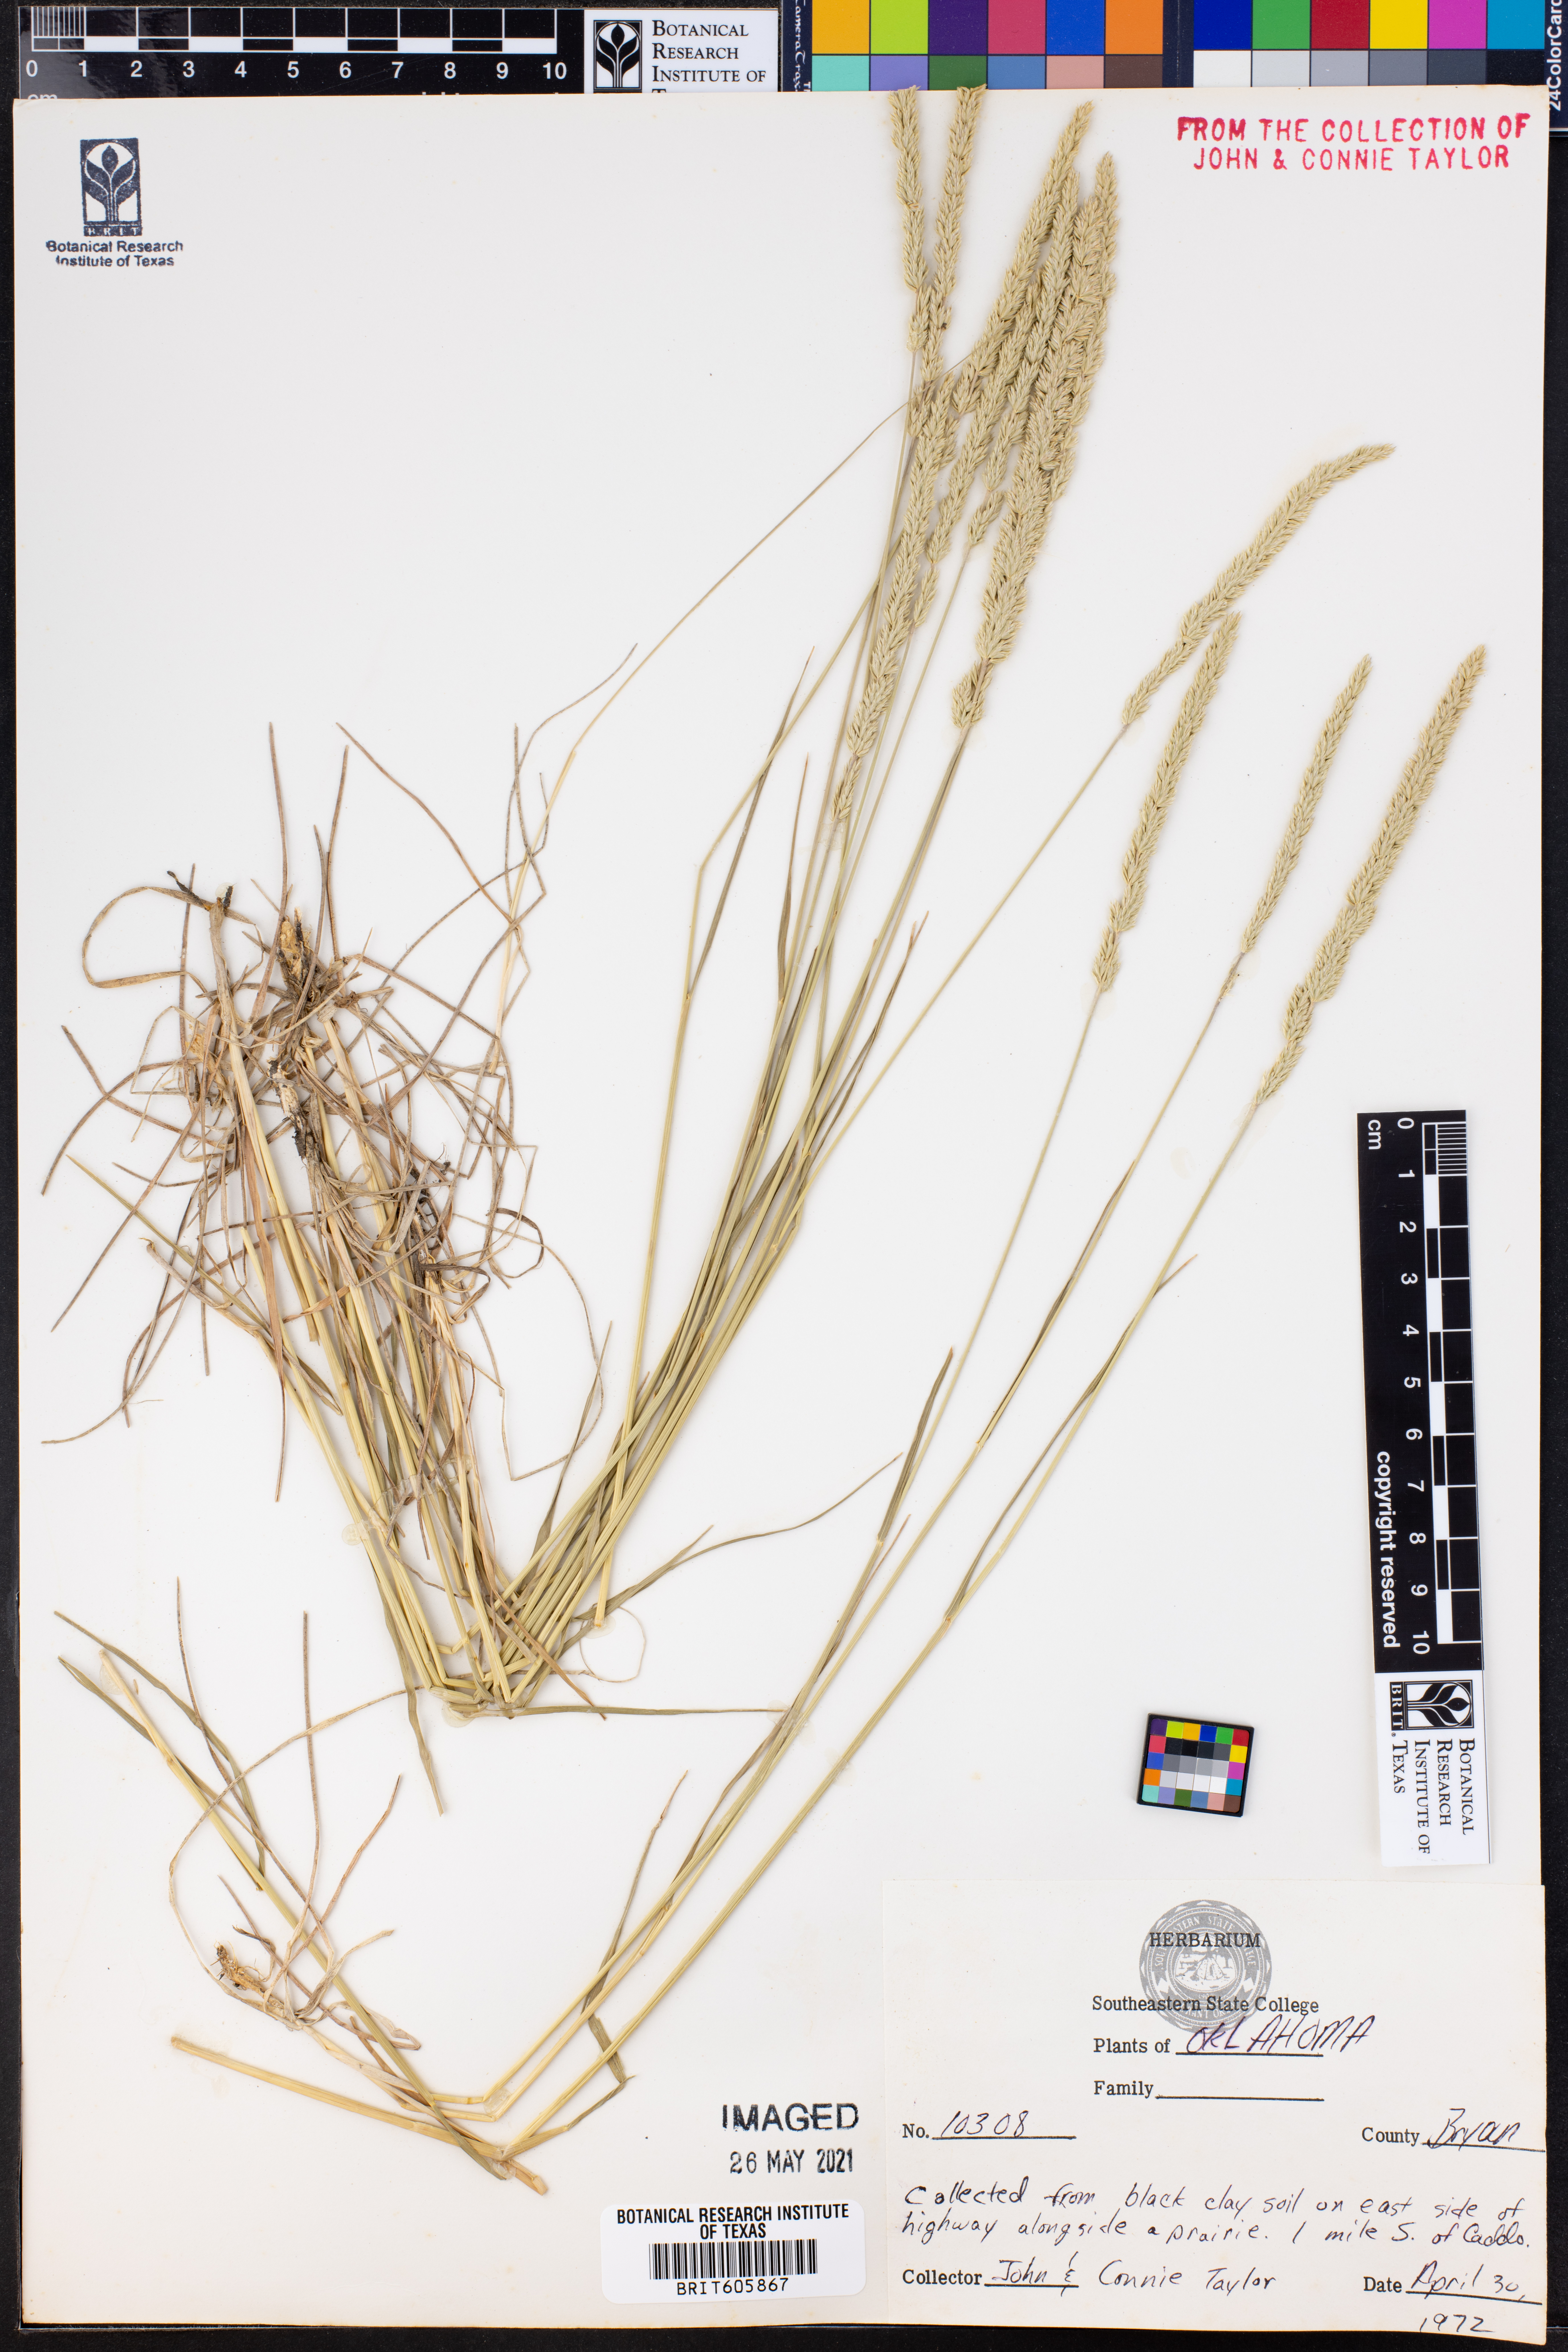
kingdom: Plantae
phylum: Tracheophyta
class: Liliopsida
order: Poales
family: Poaceae
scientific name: Poaceae
